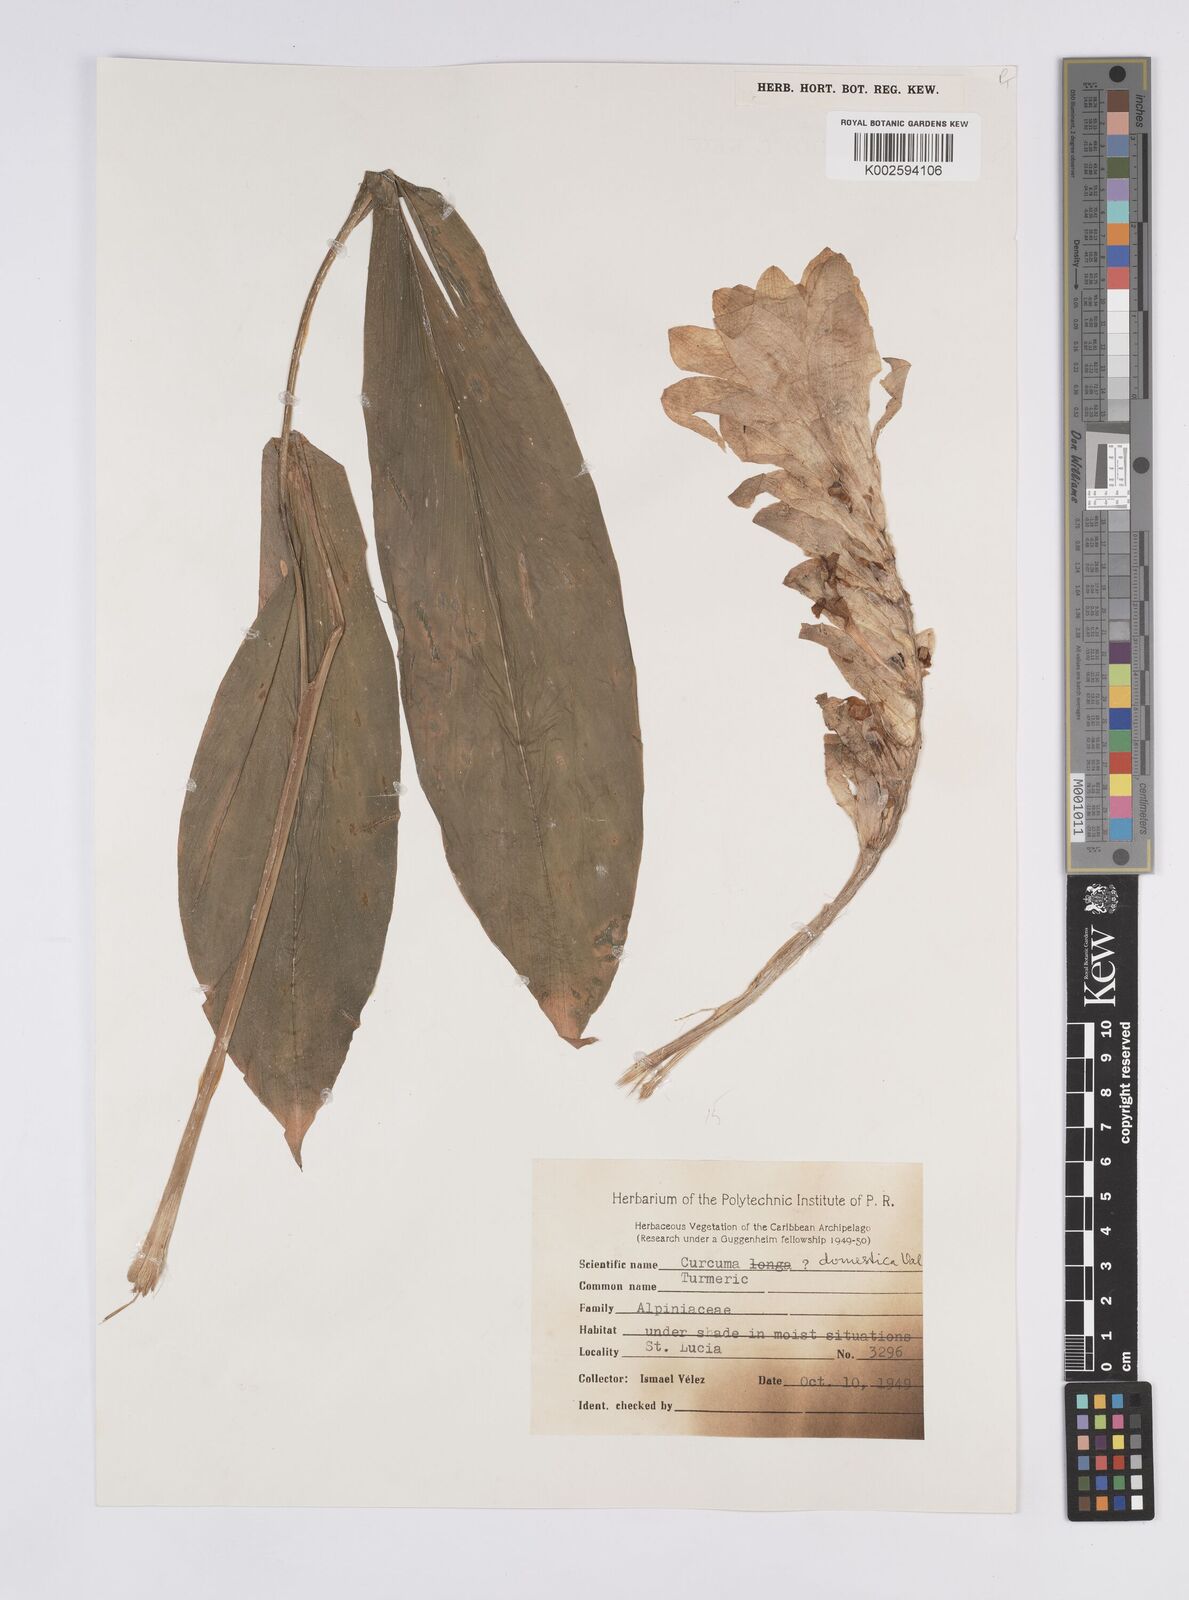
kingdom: Plantae
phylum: Tracheophyta
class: Liliopsida
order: Zingiberales
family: Zingiberaceae
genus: Curcuma
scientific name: Curcuma
